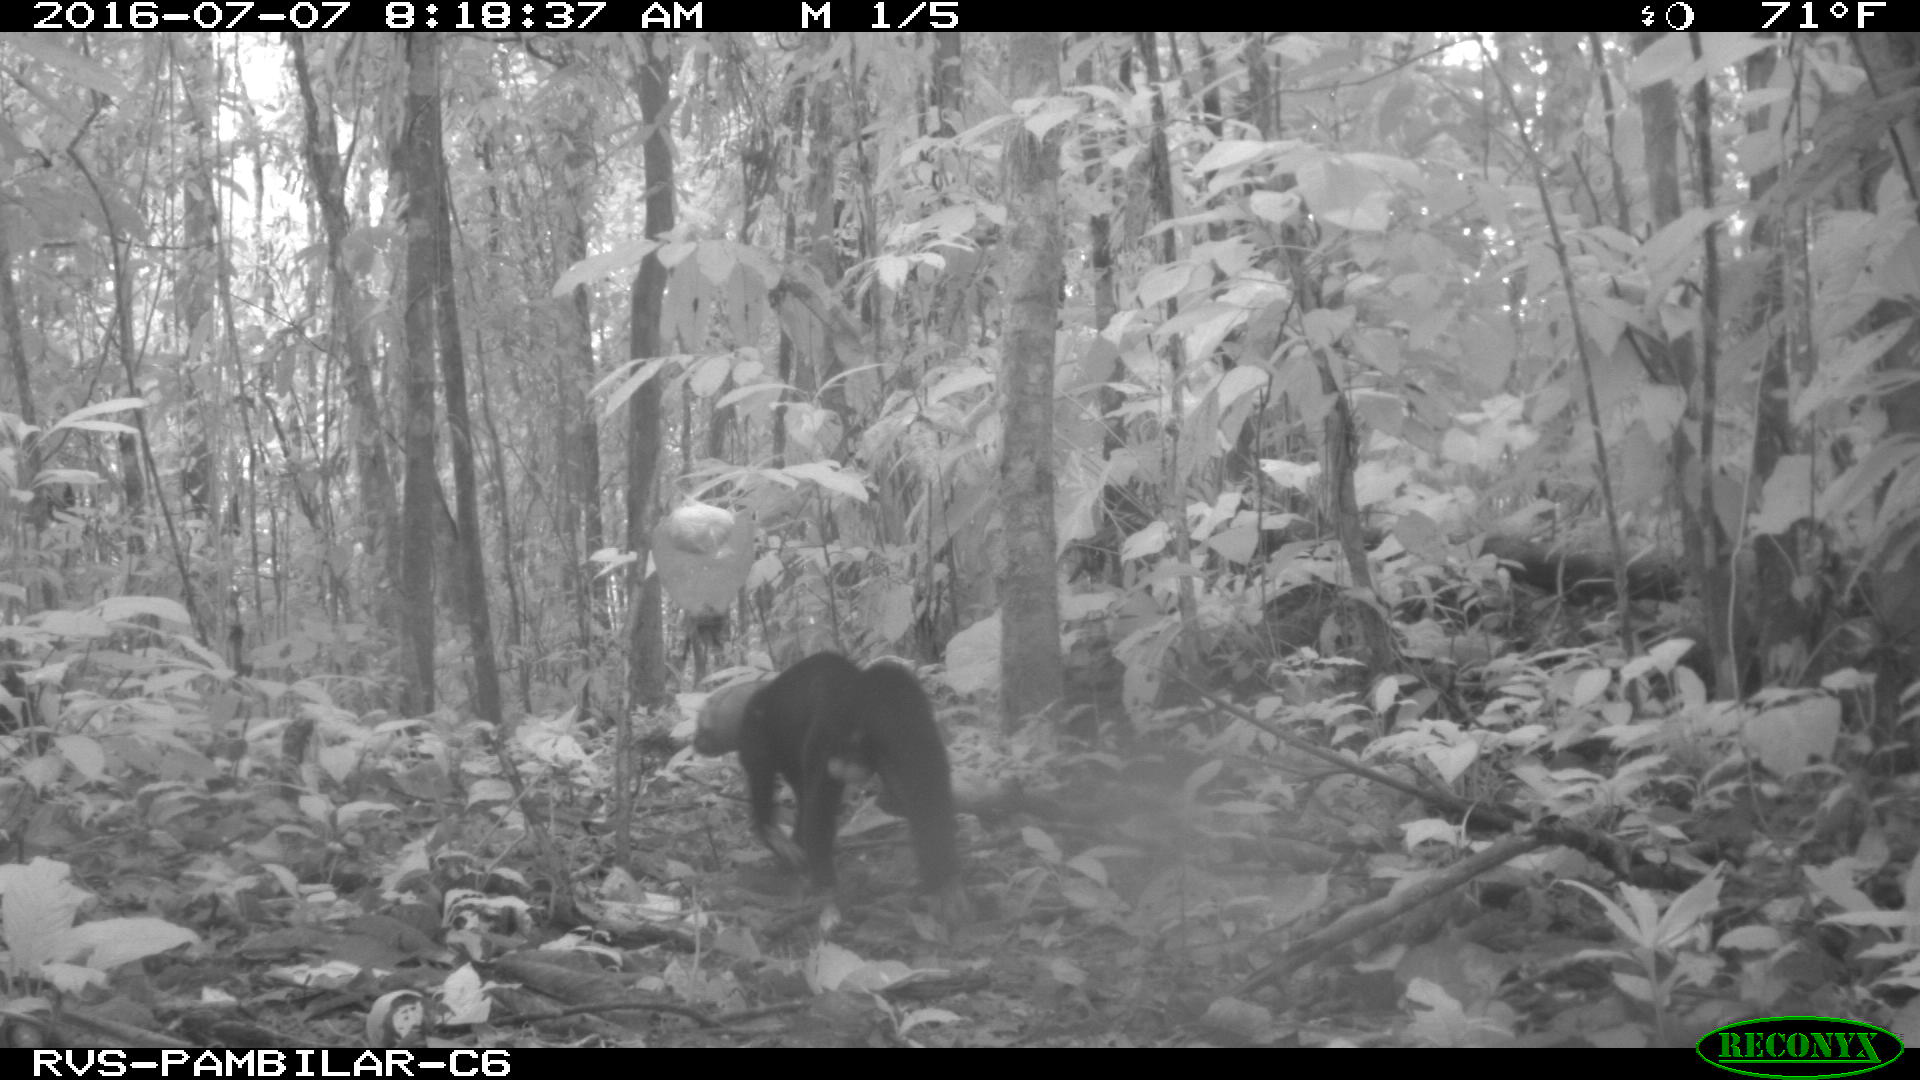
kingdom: Animalia
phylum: Chordata
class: Mammalia
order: Carnivora
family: Mustelidae
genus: Eira
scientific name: Eira barbara
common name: Tayra
